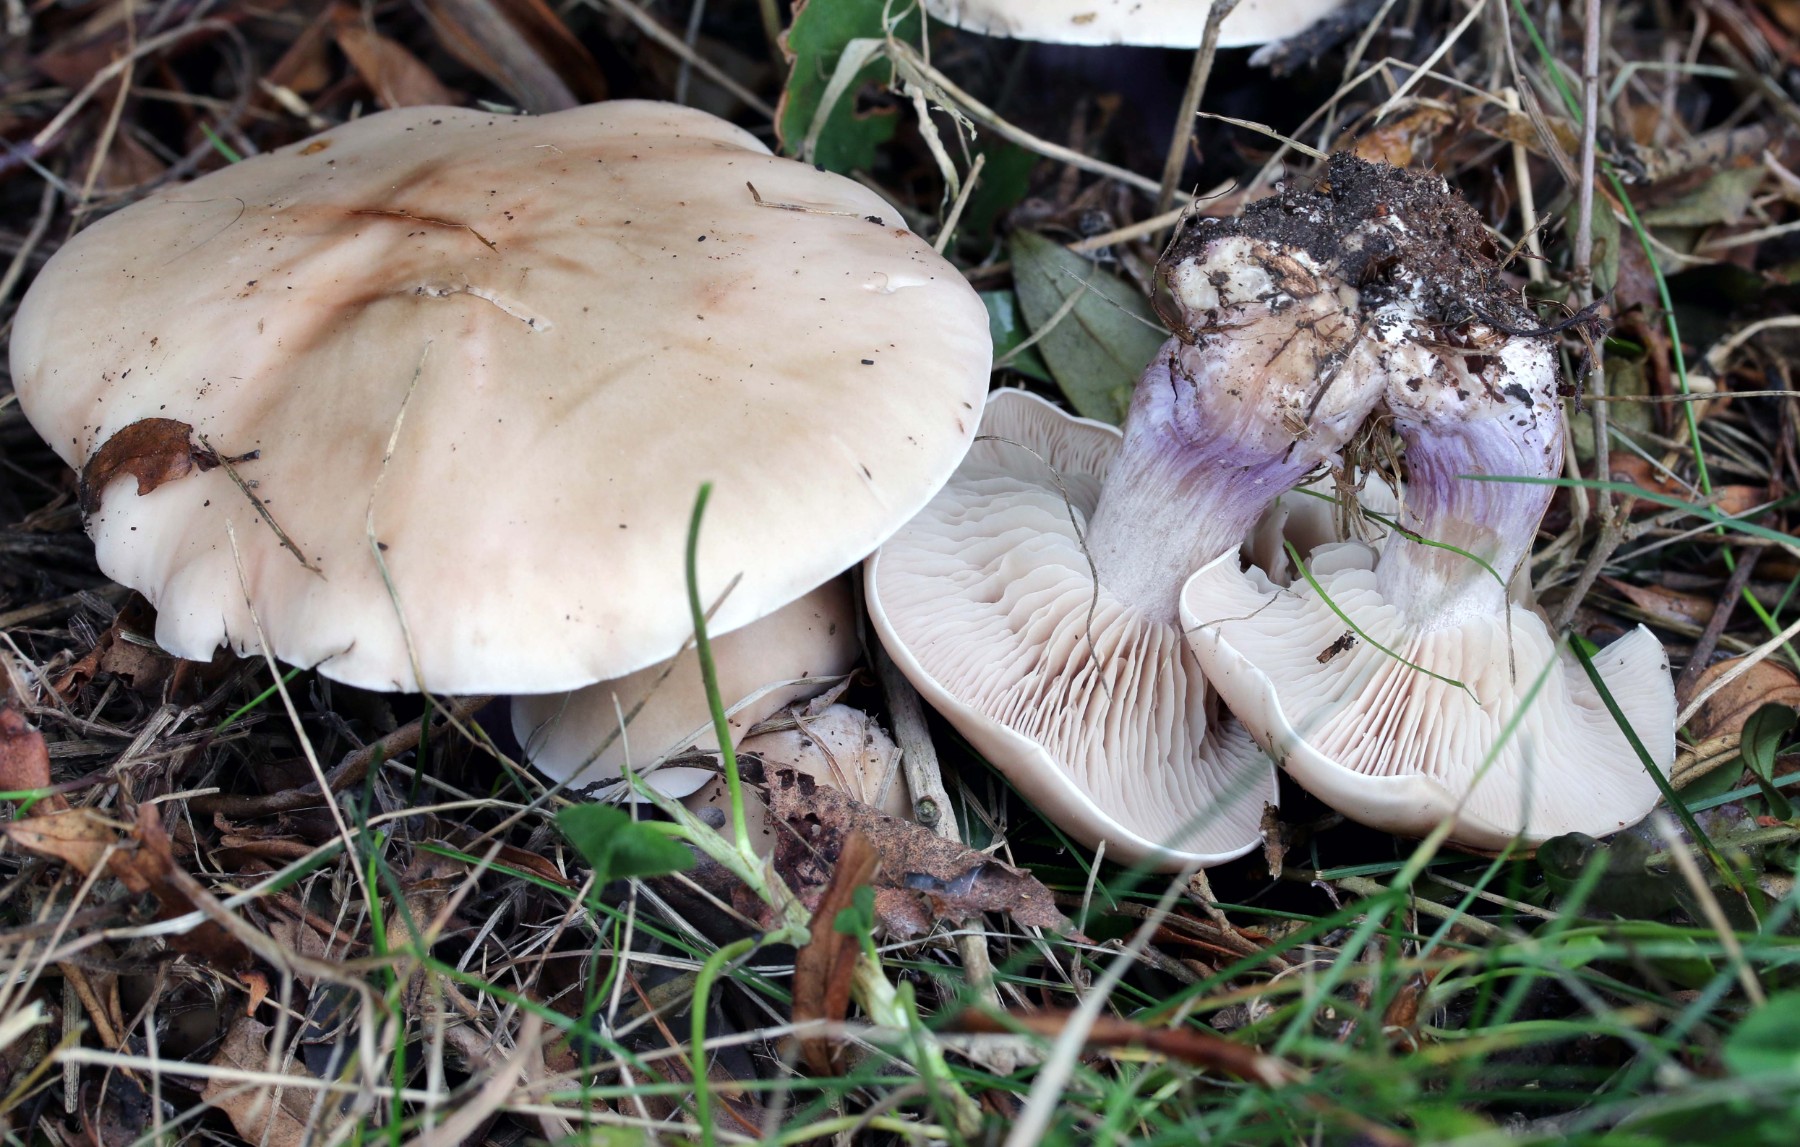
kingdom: Fungi
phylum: Basidiomycota
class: Agaricomycetes
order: Agaricales
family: Tricholomataceae
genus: Lepista
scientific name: Lepista personata
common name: bleg hekseringshat
